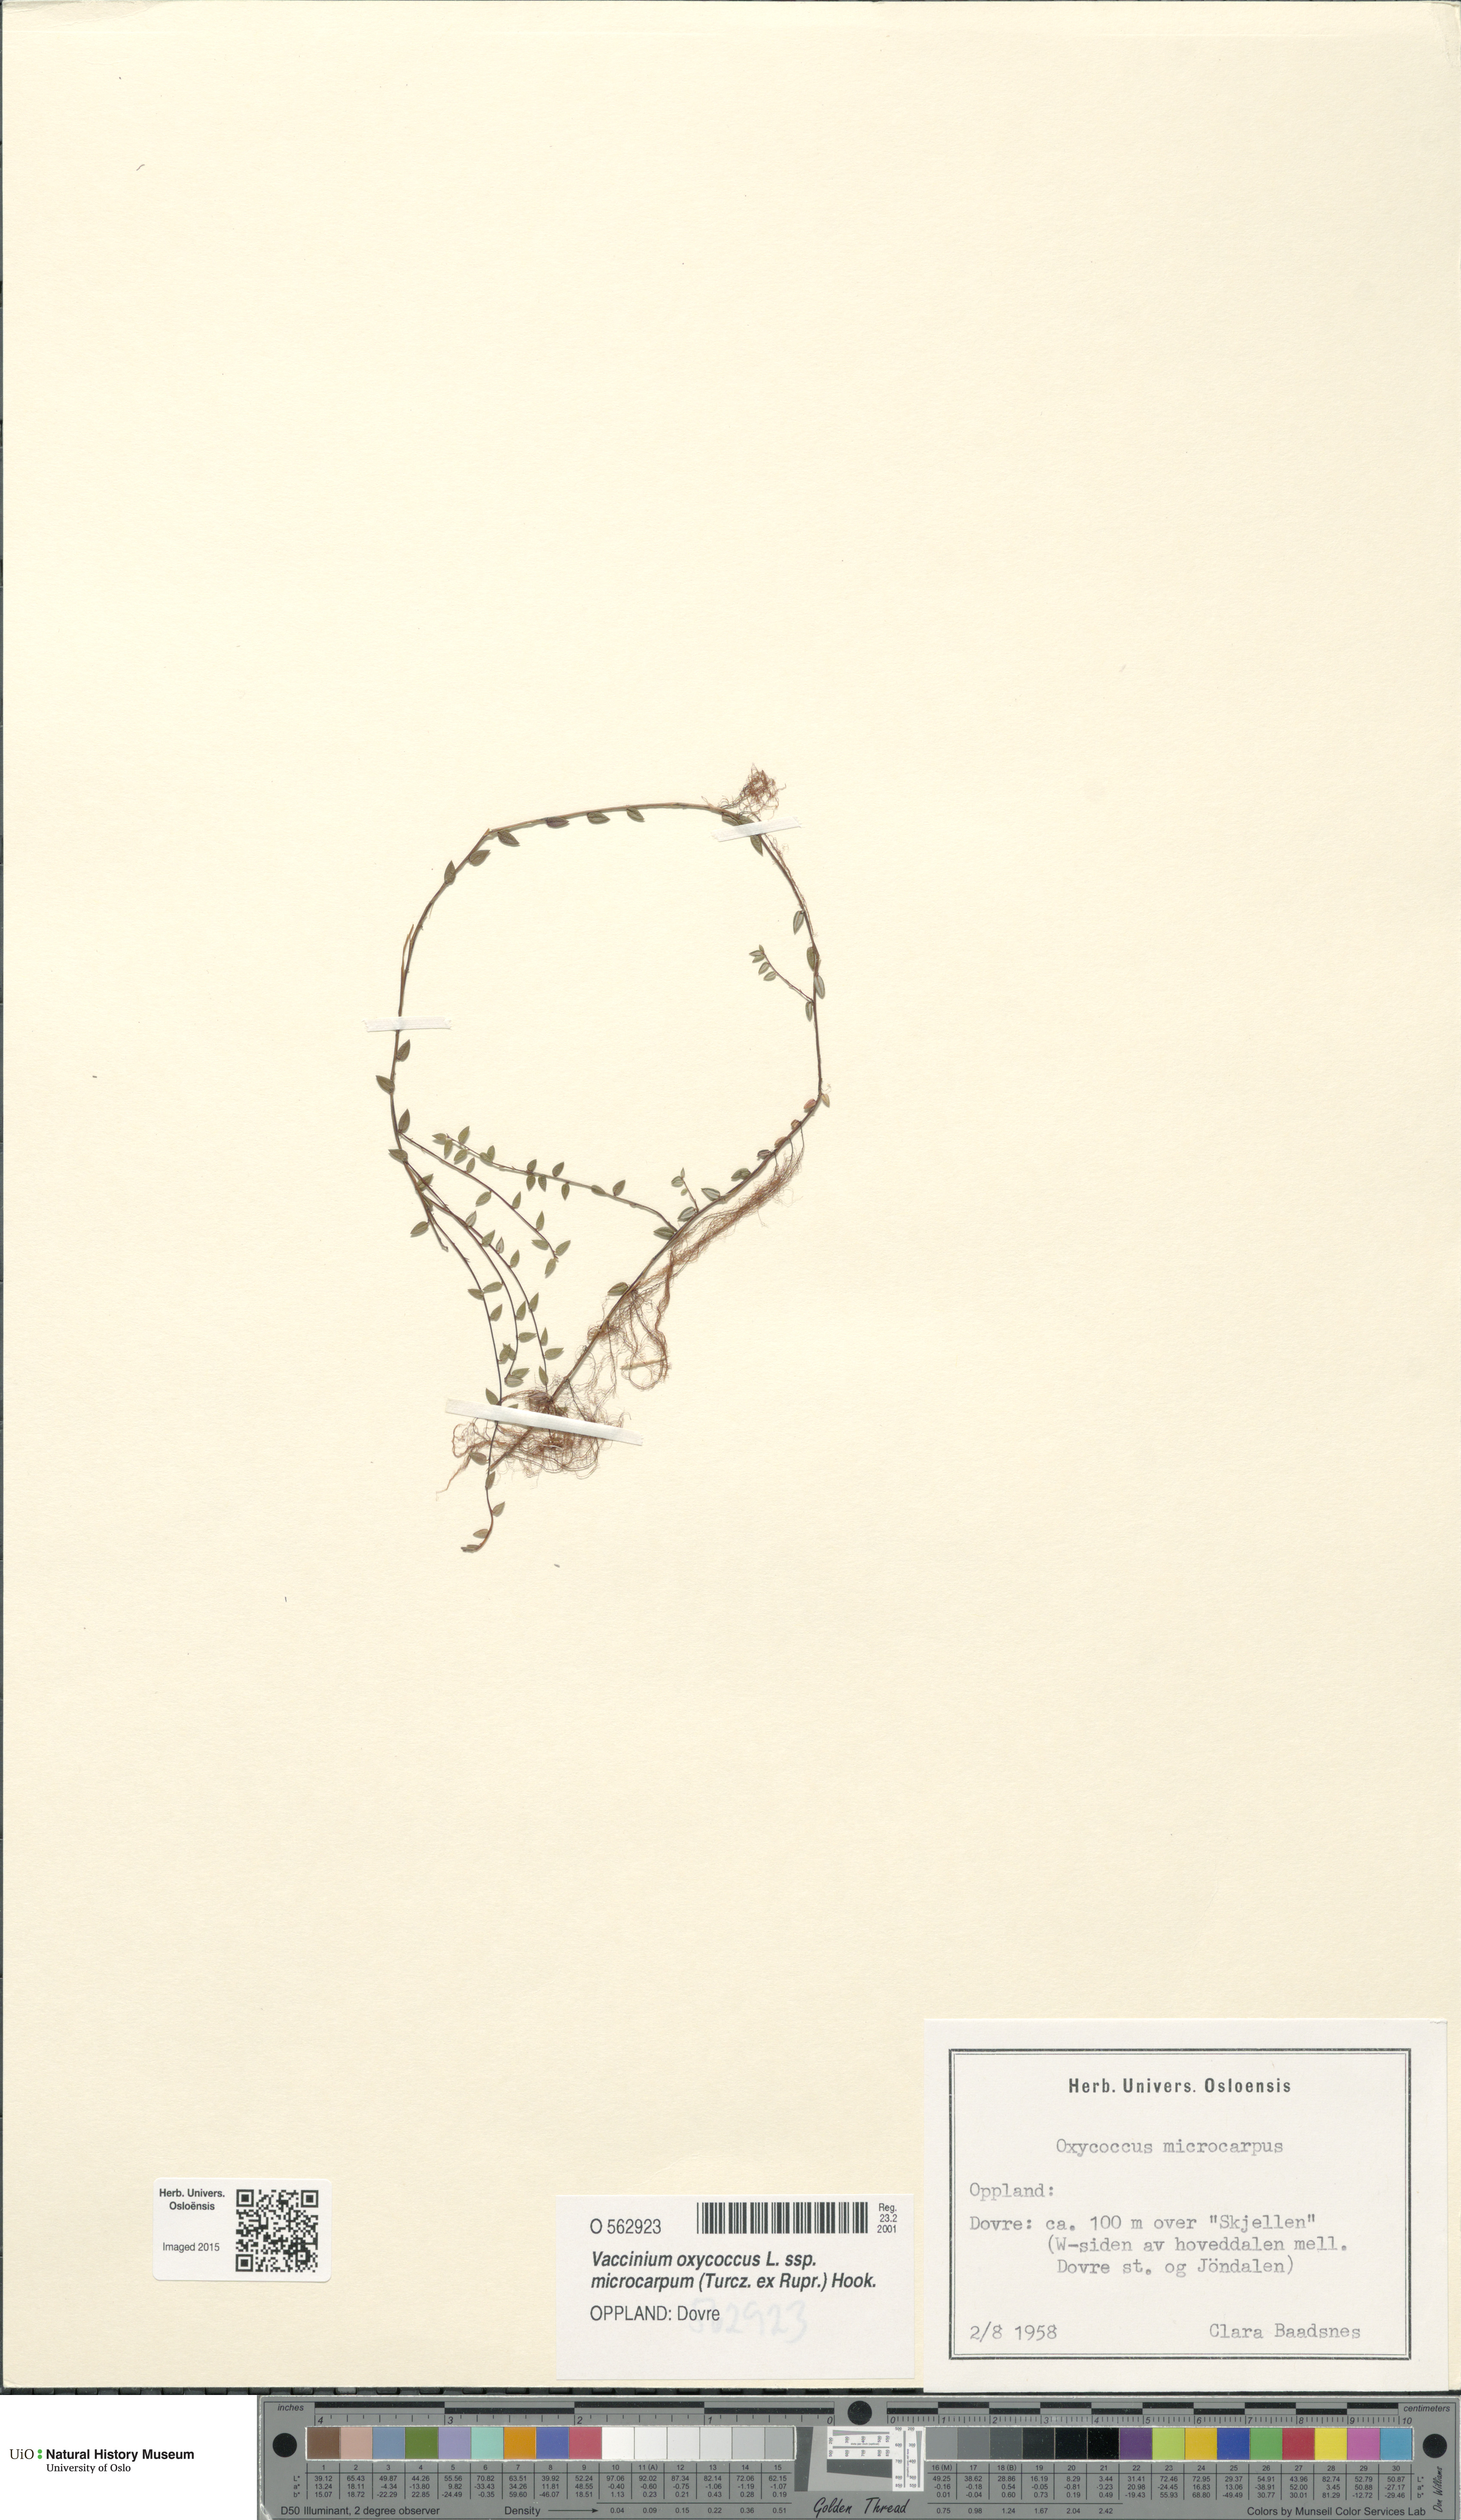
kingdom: Plantae
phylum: Tracheophyta
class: Magnoliopsida
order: Ericales
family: Ericaceae
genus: Vaccinium
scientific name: Vaccinium microcarpum
